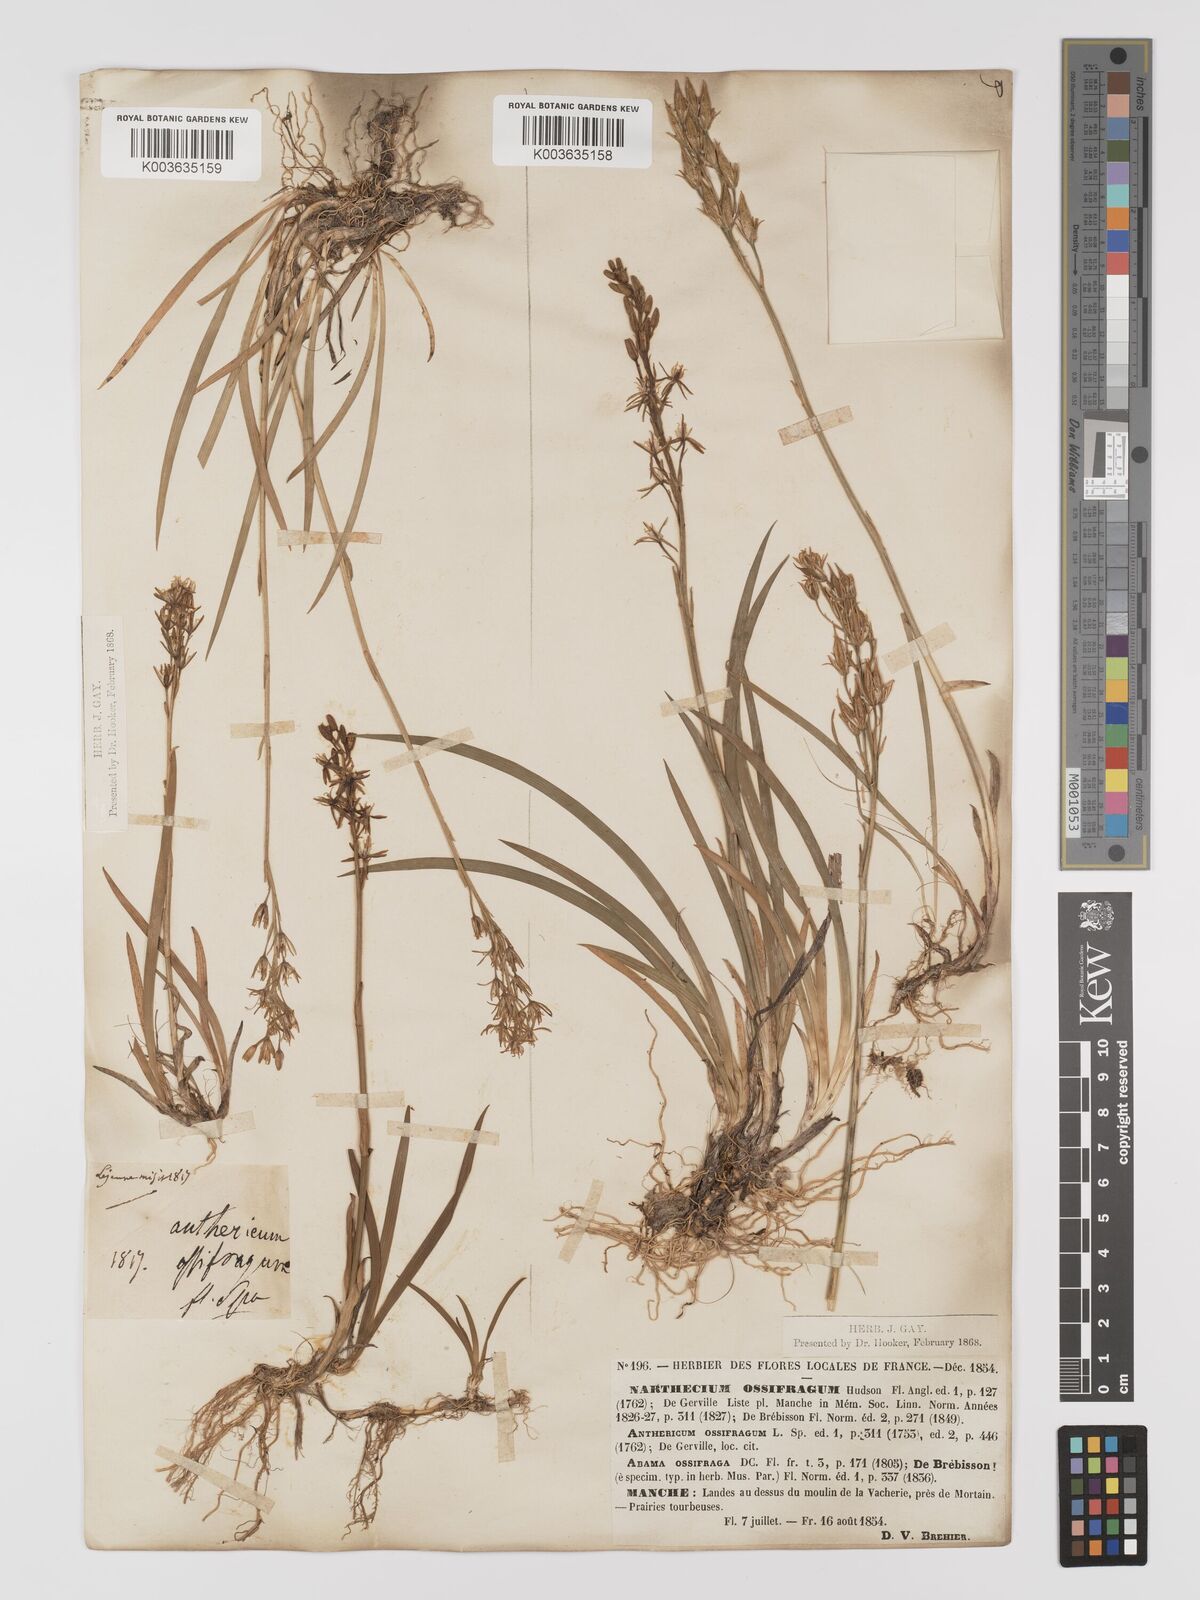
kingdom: Plantae
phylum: Tracheophyta
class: Liliopsida
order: Dioscoreales
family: Nartheciaceae
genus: Narthecium
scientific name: Narthecium ossifragum
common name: Bog asphodel
